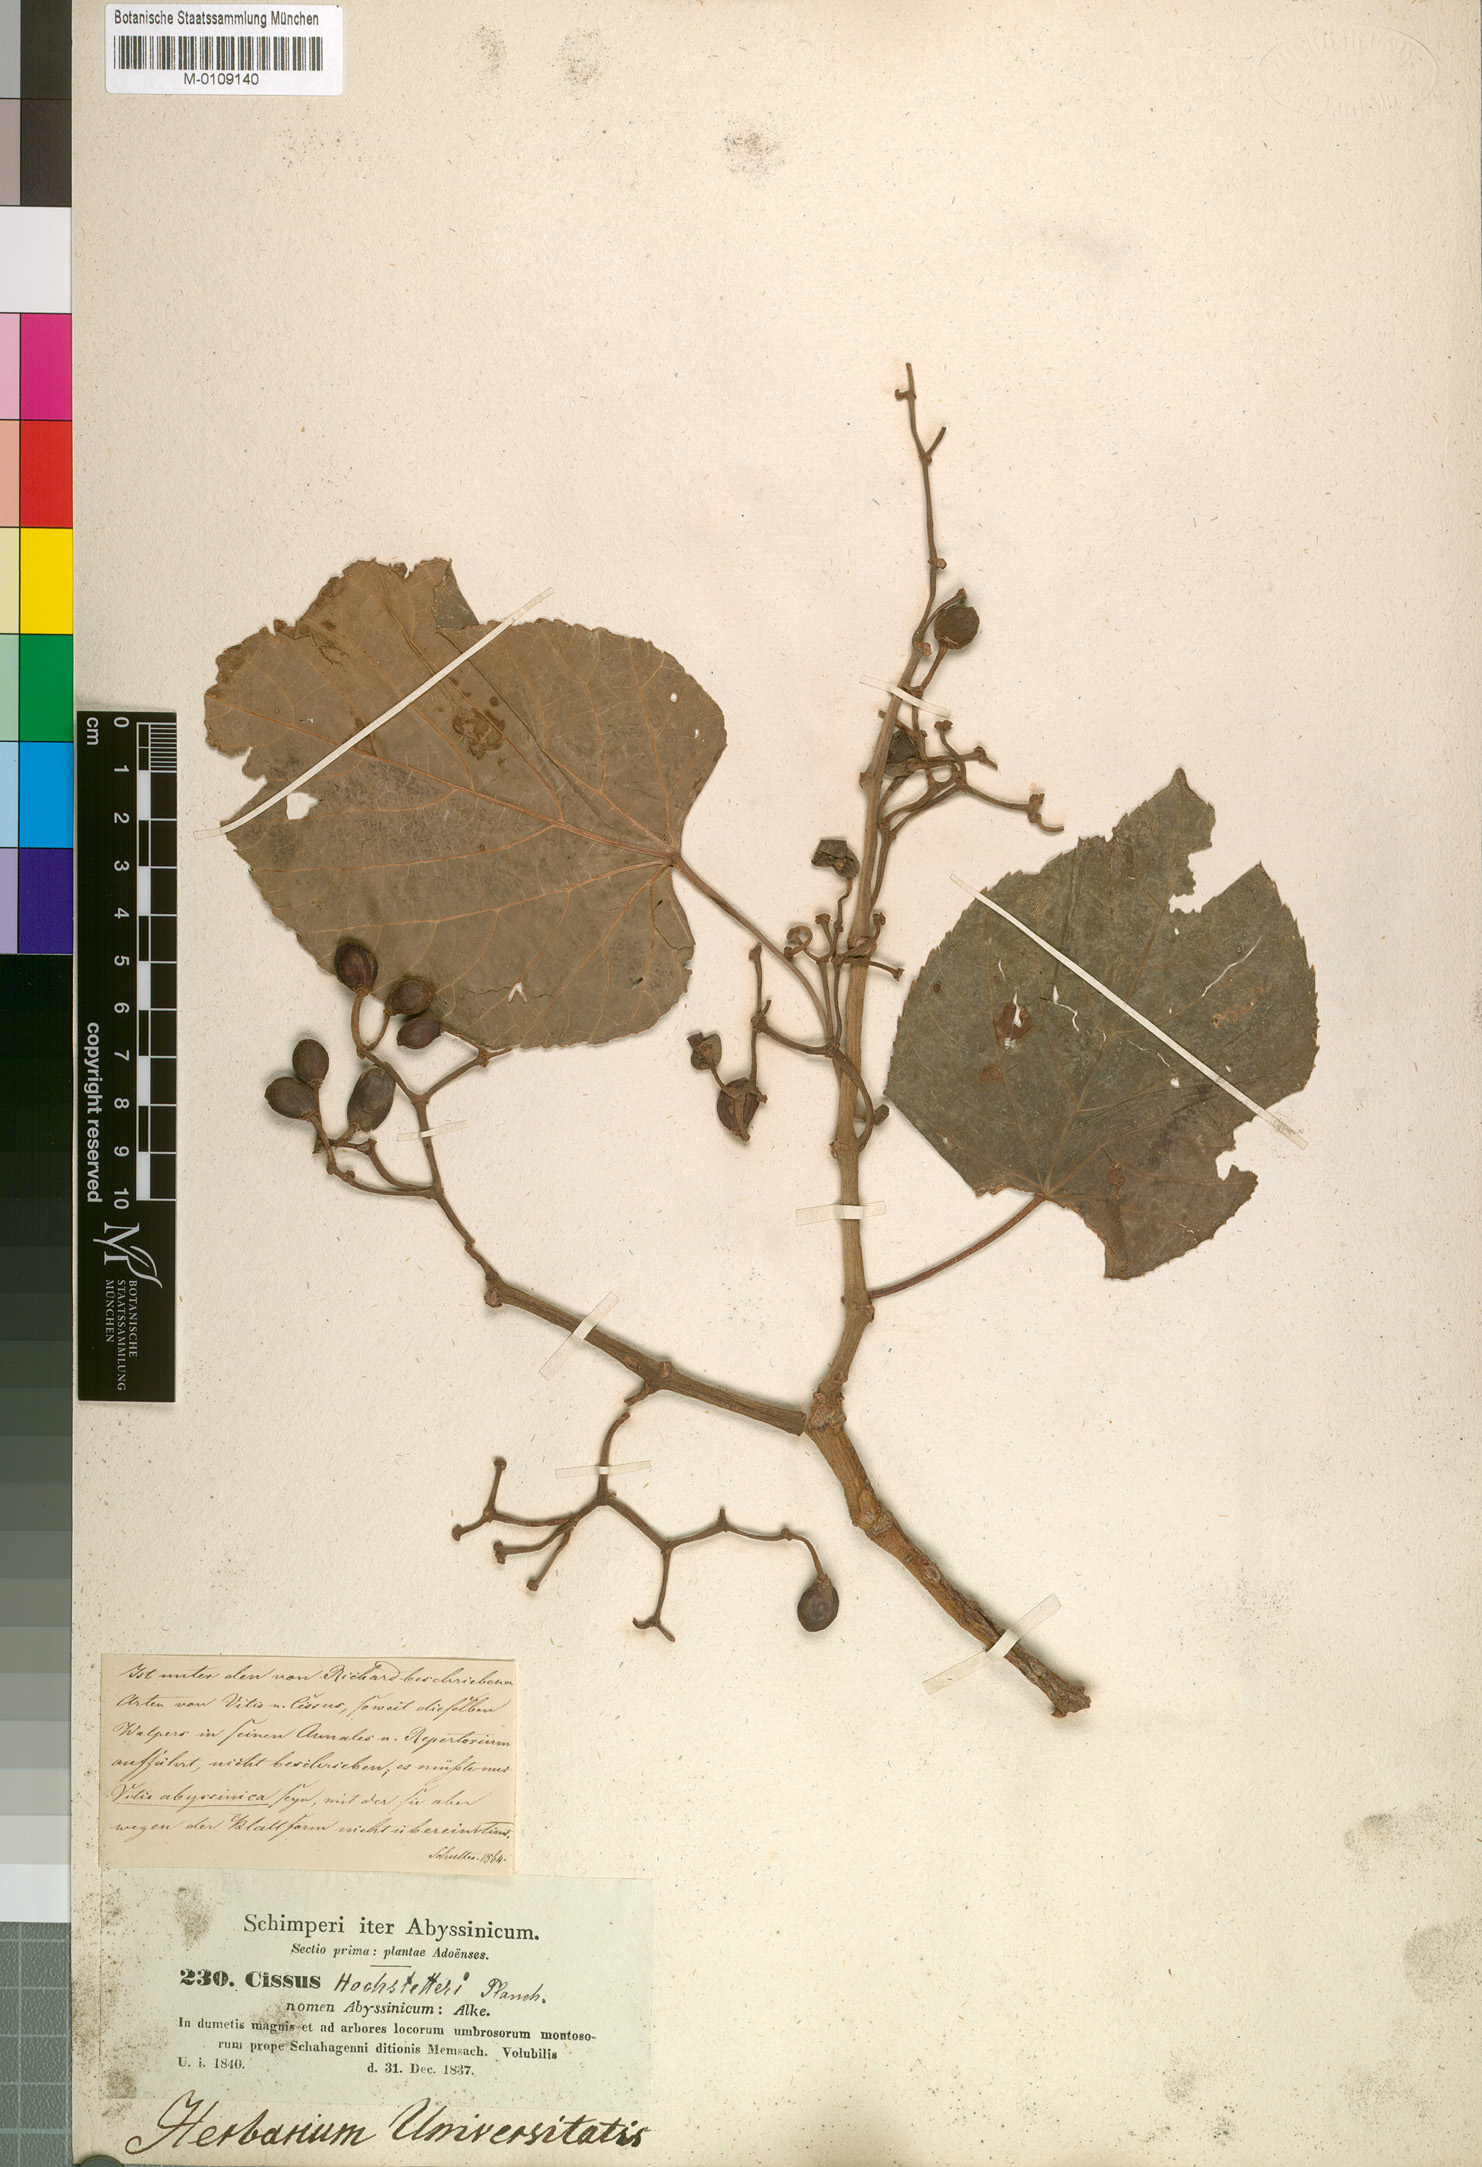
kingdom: Plantae
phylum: Tracheophyta
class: Magnoliopsida
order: Vitales
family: Vitaceae
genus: Cissus
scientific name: Cissus petiolata
